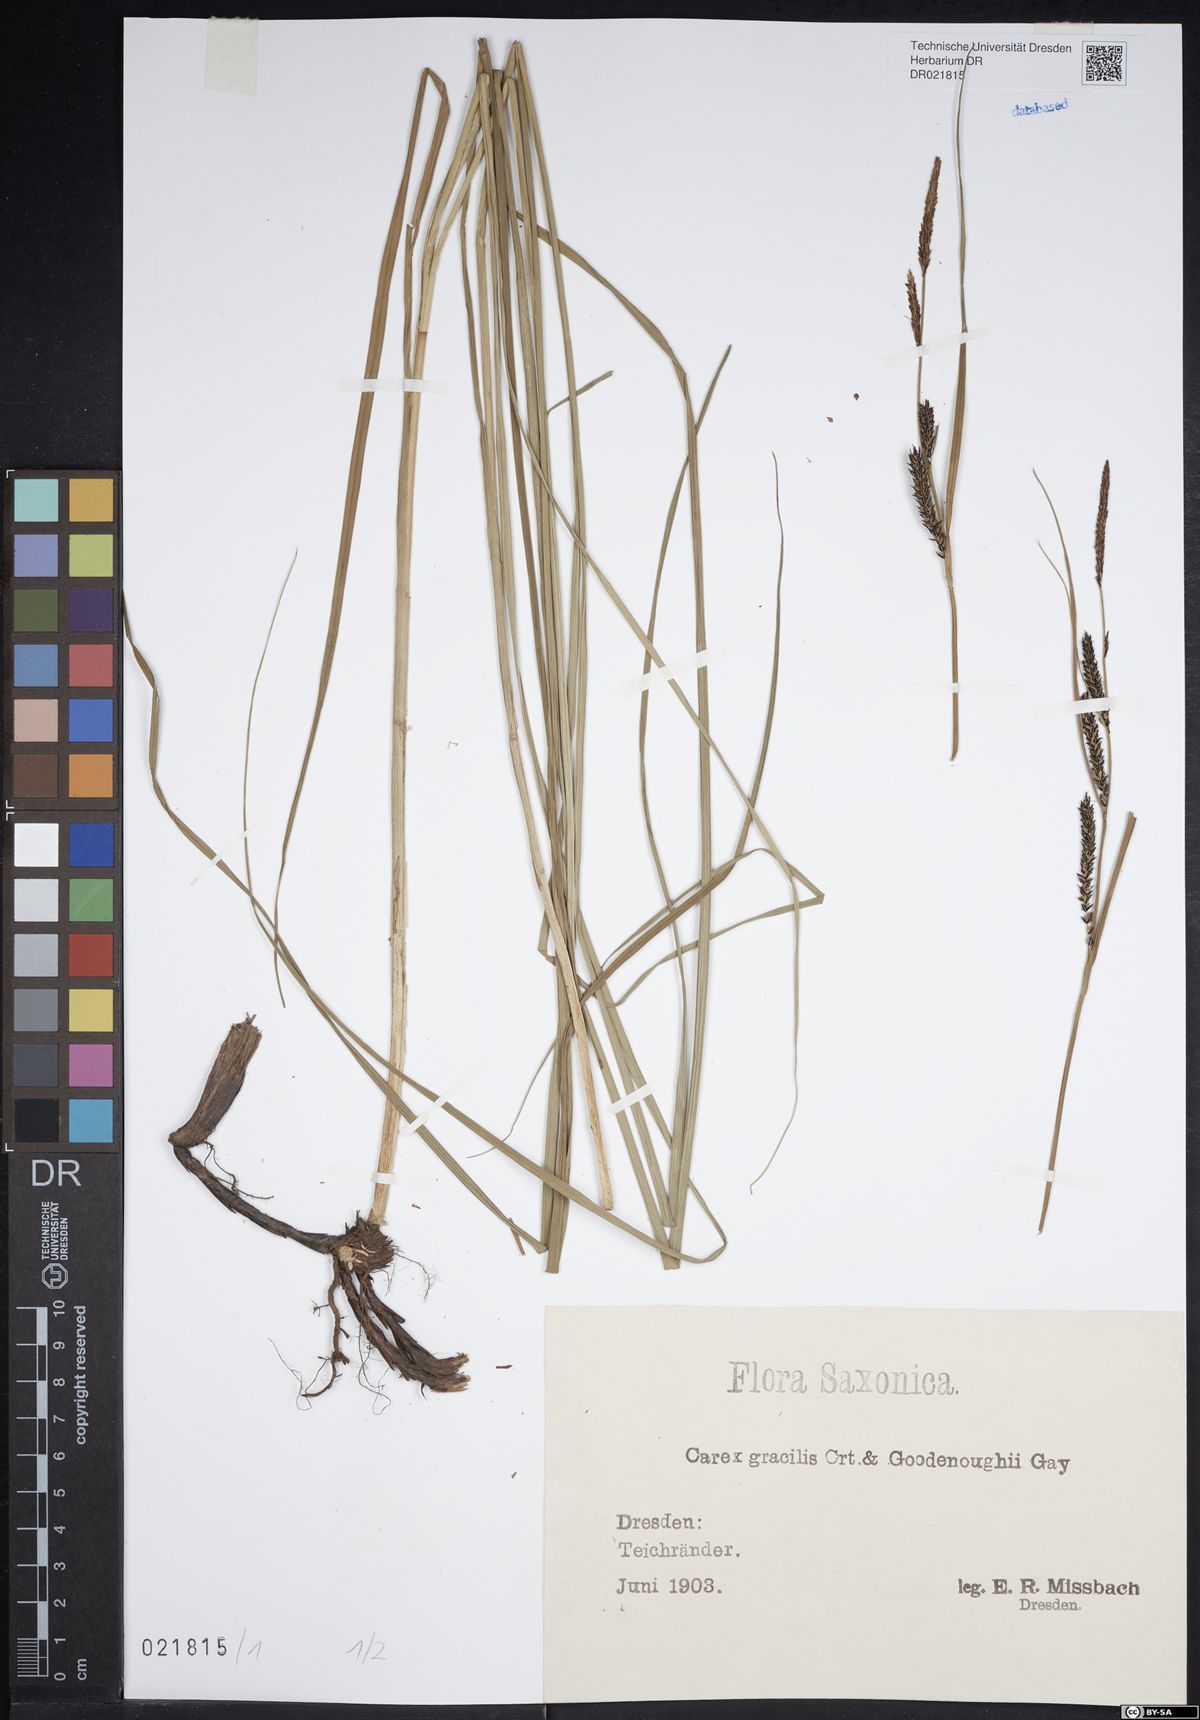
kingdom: Plantae
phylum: Tracheophyta
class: Liliopsida
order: Poales
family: Cyperaceae
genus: Carex
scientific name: Carex elytroides
